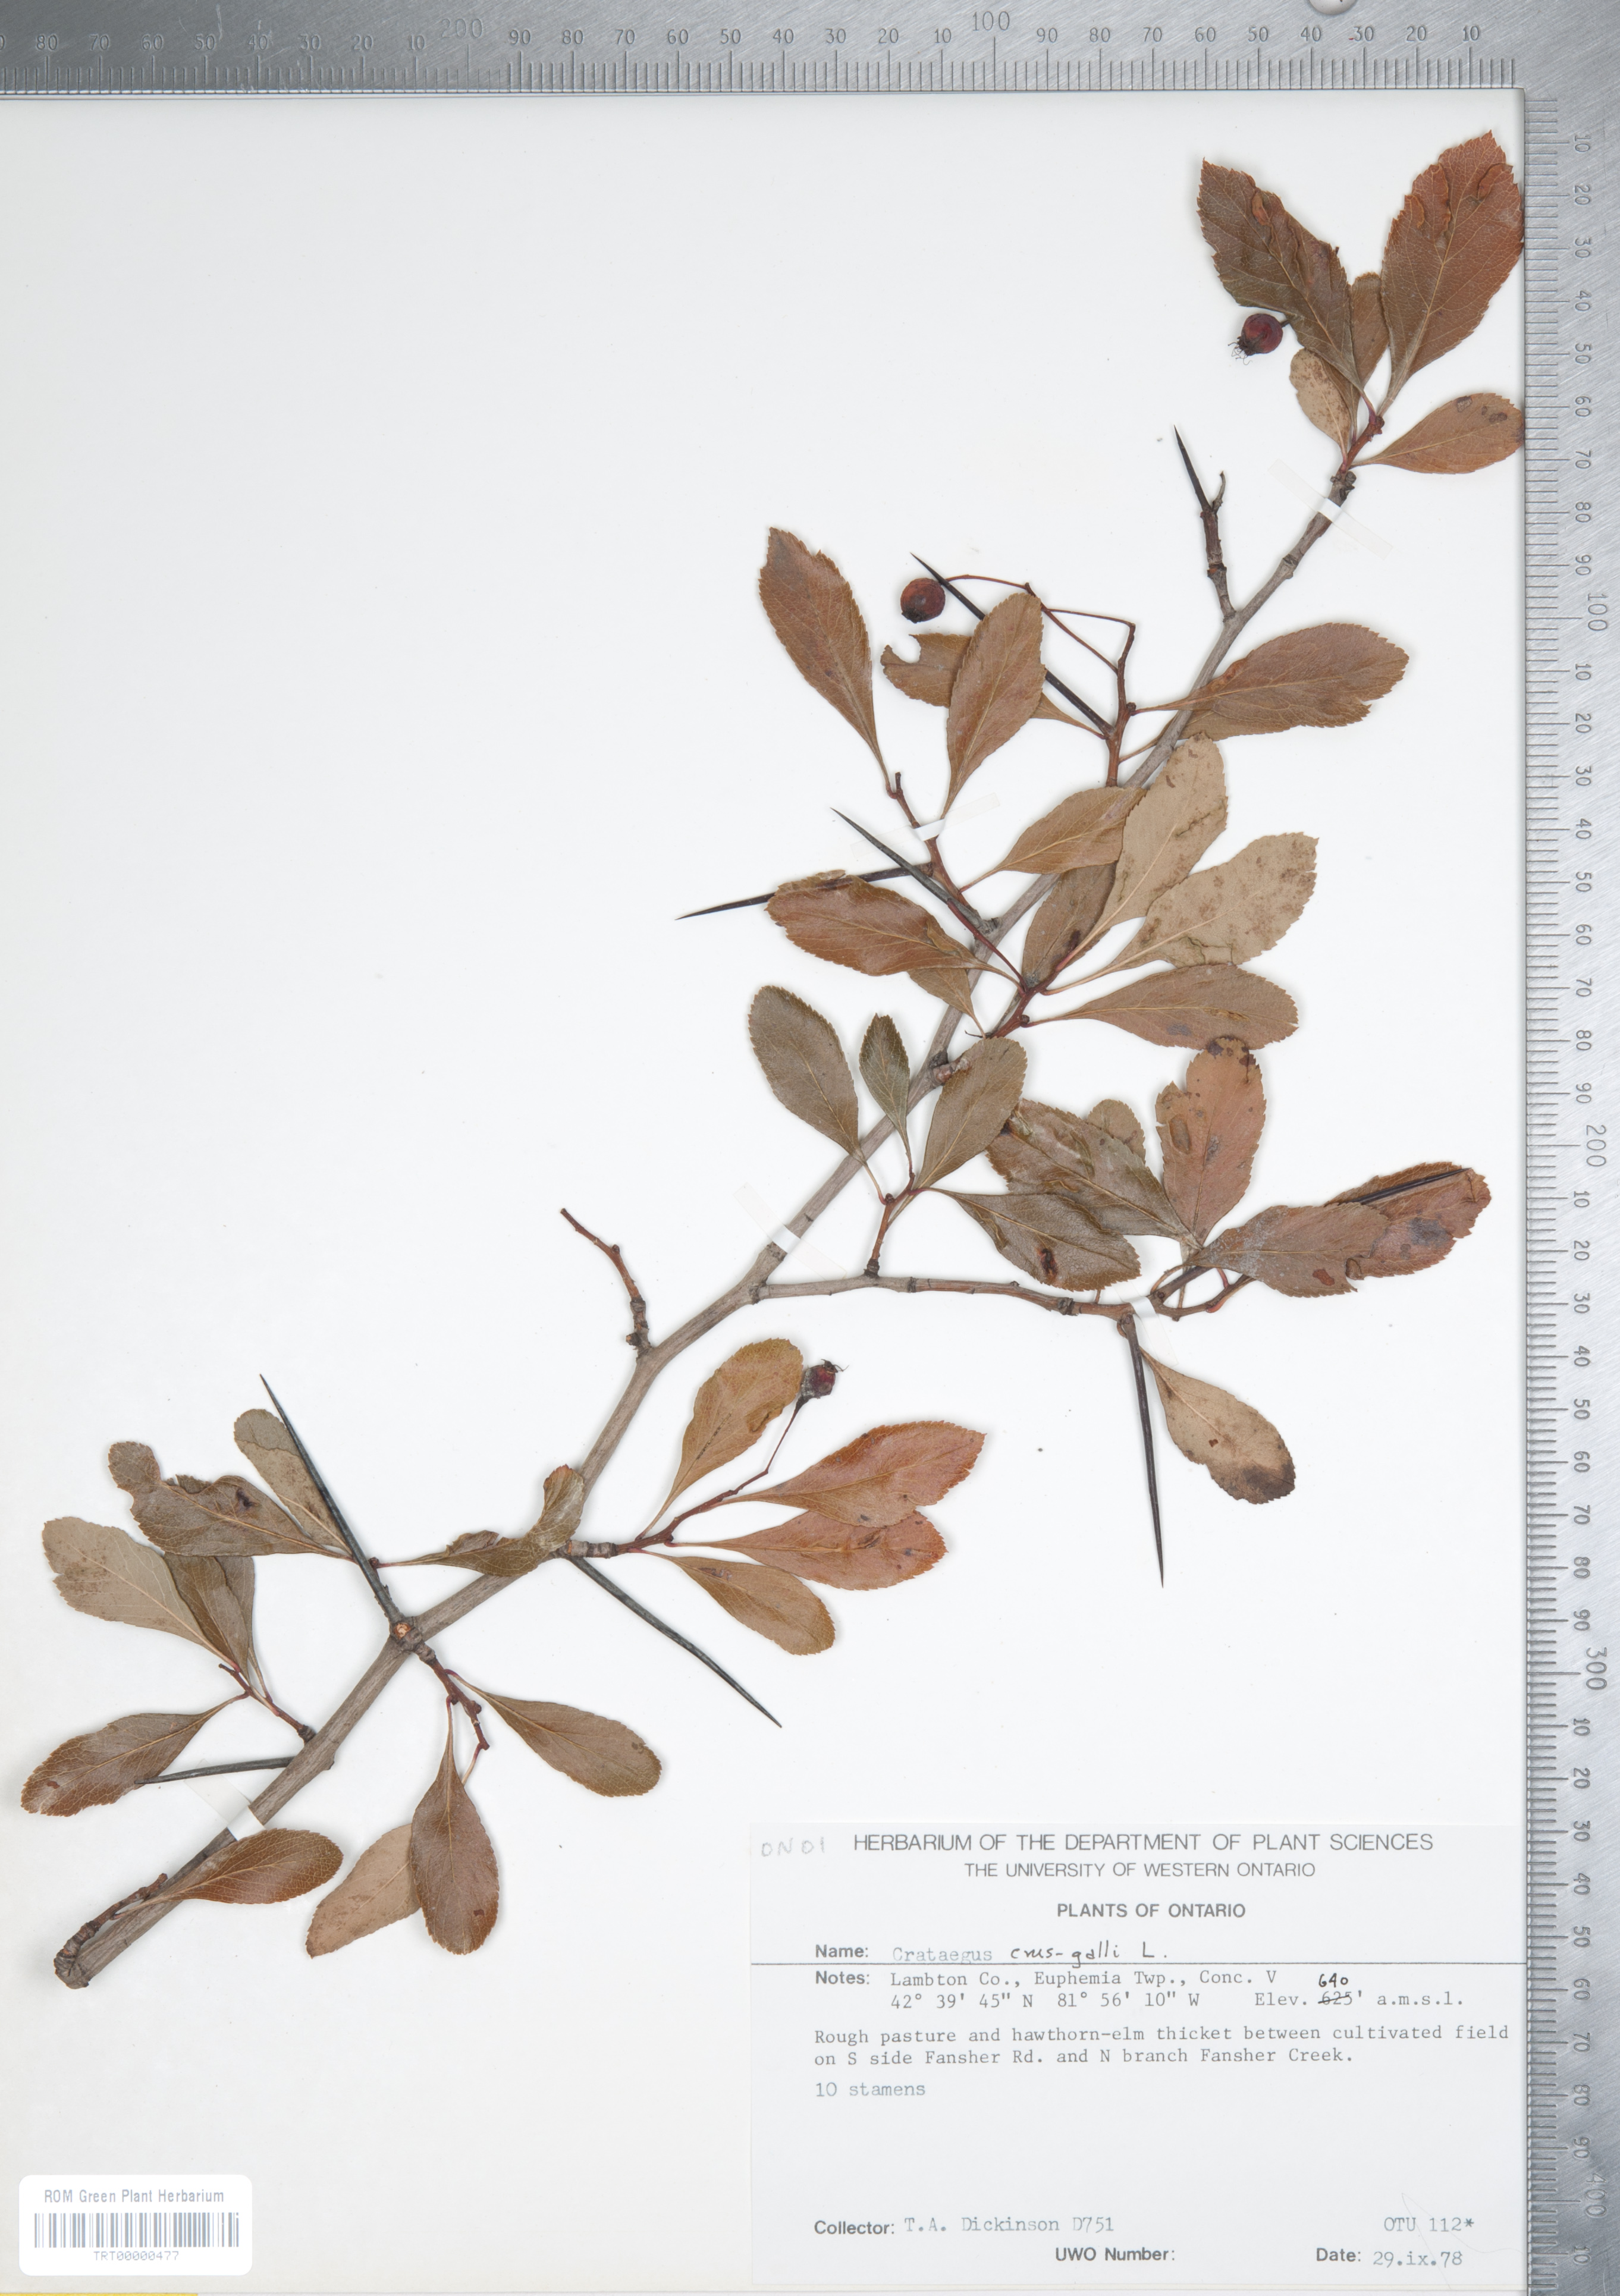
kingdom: Plantae
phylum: Tracheophyta
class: Magnoliopsida
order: Rosales
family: Rosaceae
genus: Crataegus
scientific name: Crataegus crus-galli
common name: Cockspurthorn
